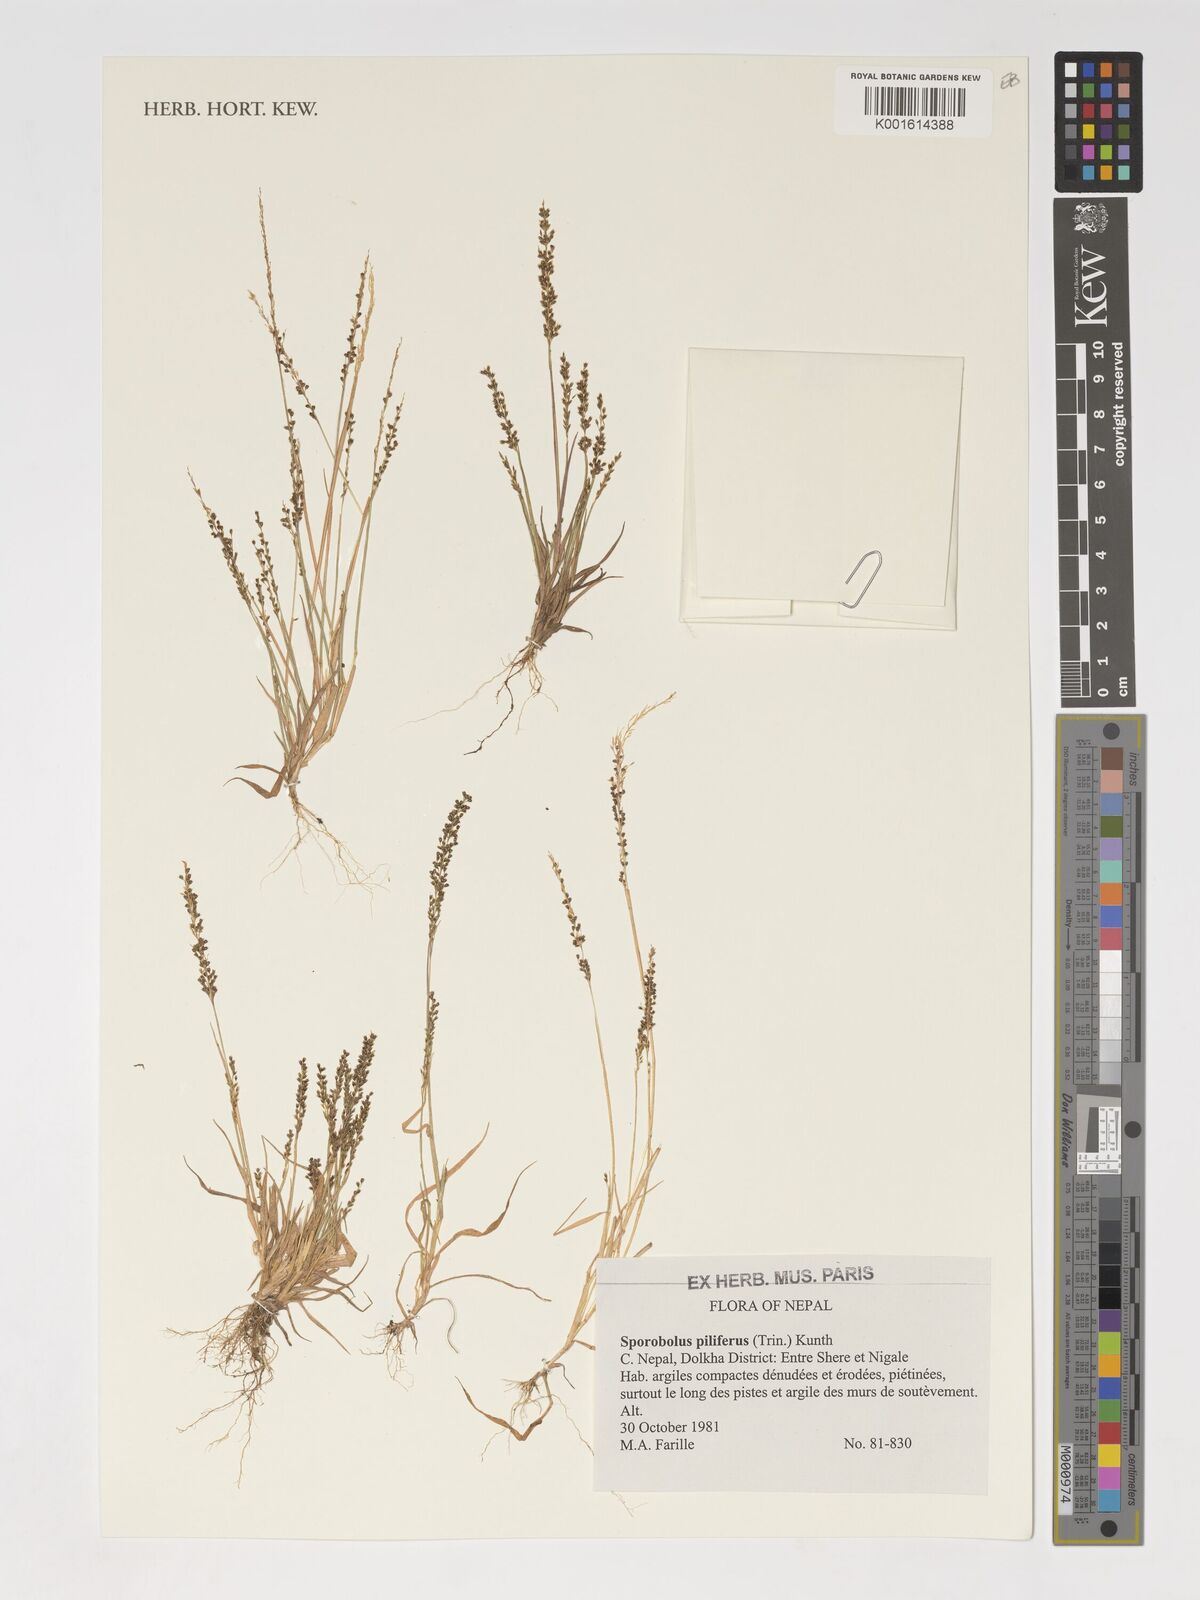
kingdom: Plantae
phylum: Tracheophyta
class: Liliopsida
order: Poales
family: Poaceae
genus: Sporobolus
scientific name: Sporobolus pilifer
